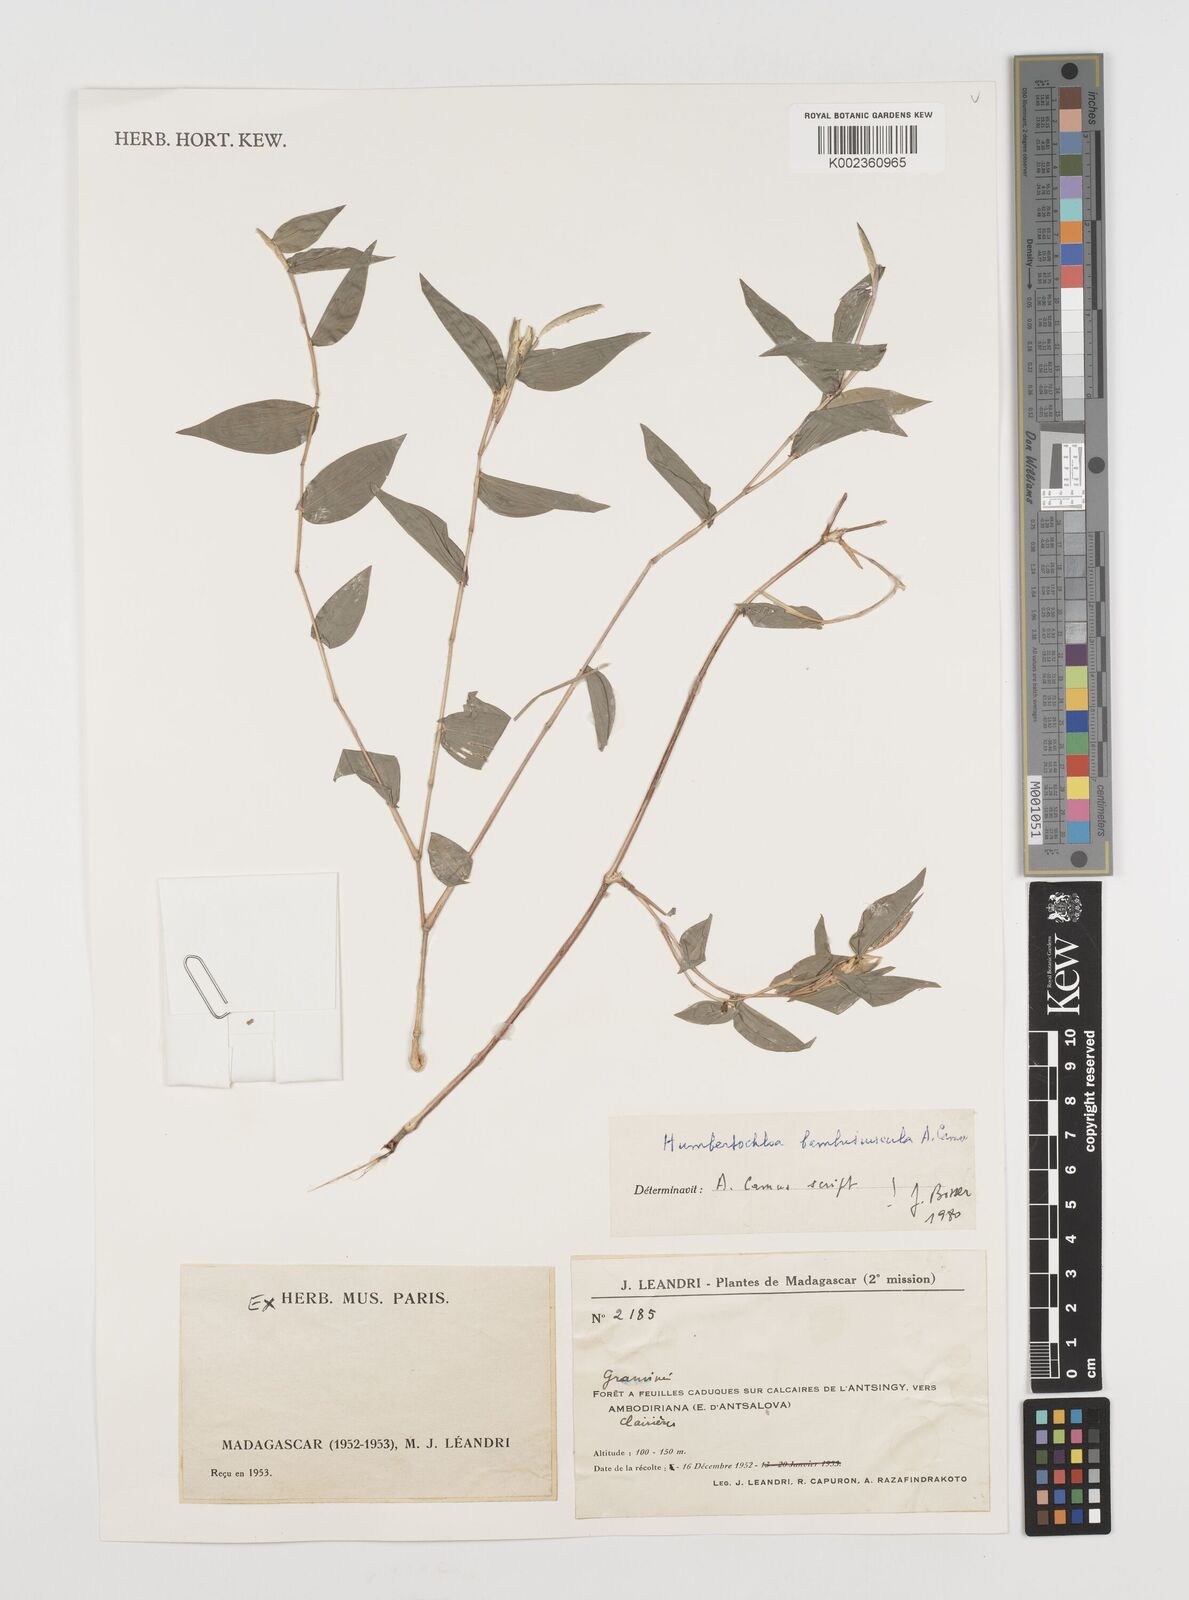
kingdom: Plantae
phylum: Tracheophyta
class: Liliopsida
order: Poales
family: Poaceae
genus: Humbertochloa
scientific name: Humbertochloa bambusiuscula
